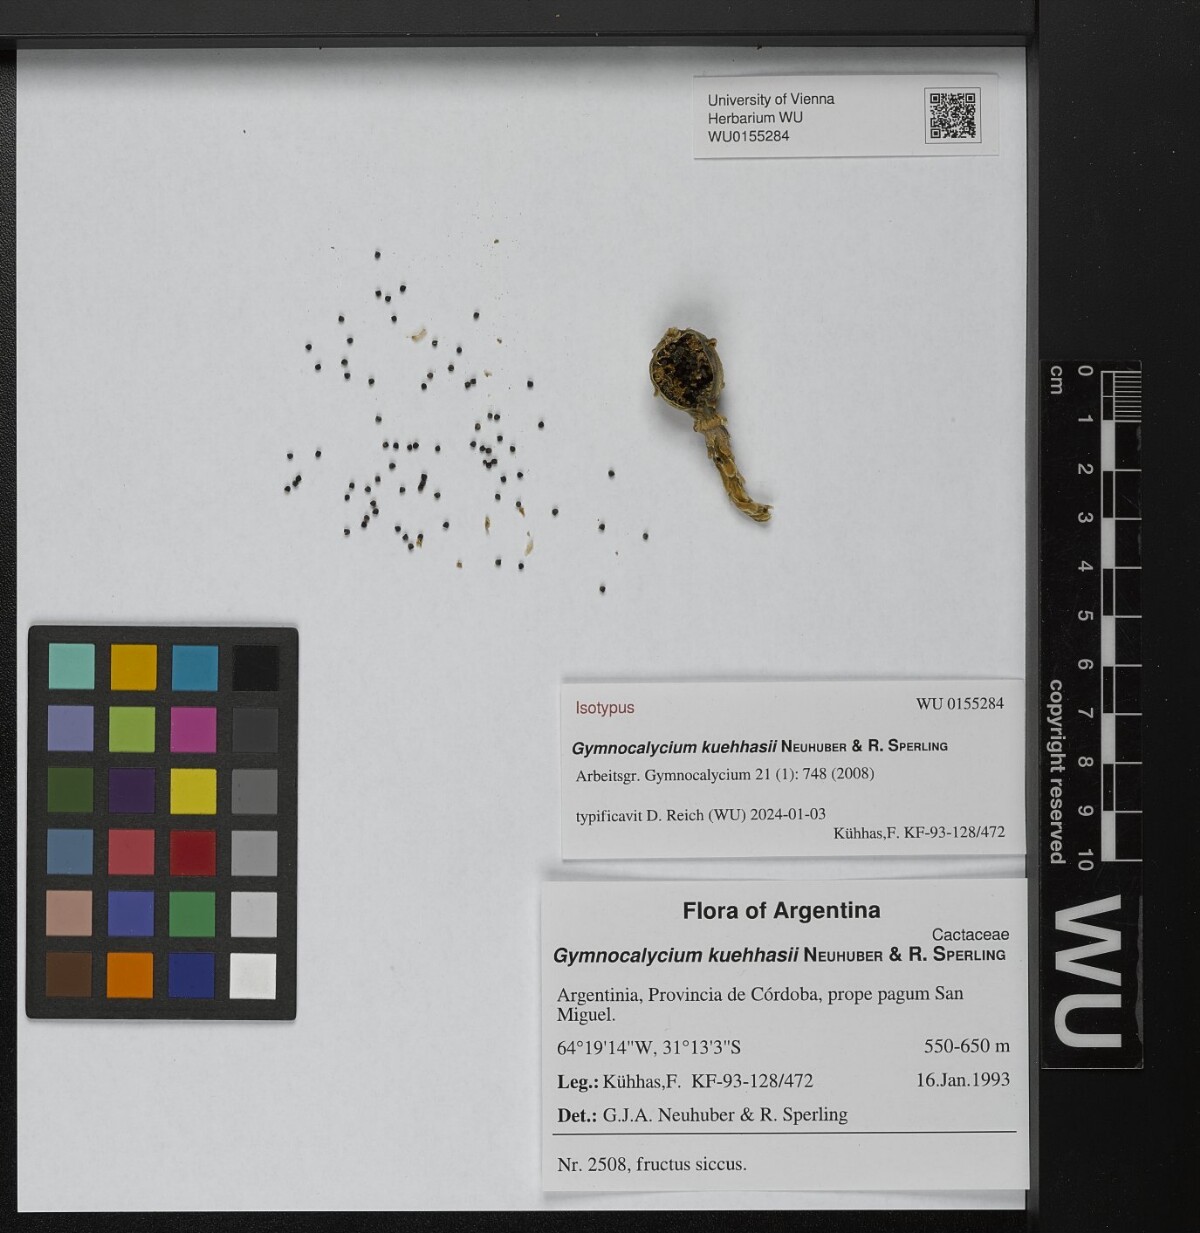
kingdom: Plantae
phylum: Tracheophyta
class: Magnoliopsida
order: Caryophyllales
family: Cactaceae
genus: Gymnocalycium
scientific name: Gymnocalycium kuehhasii
